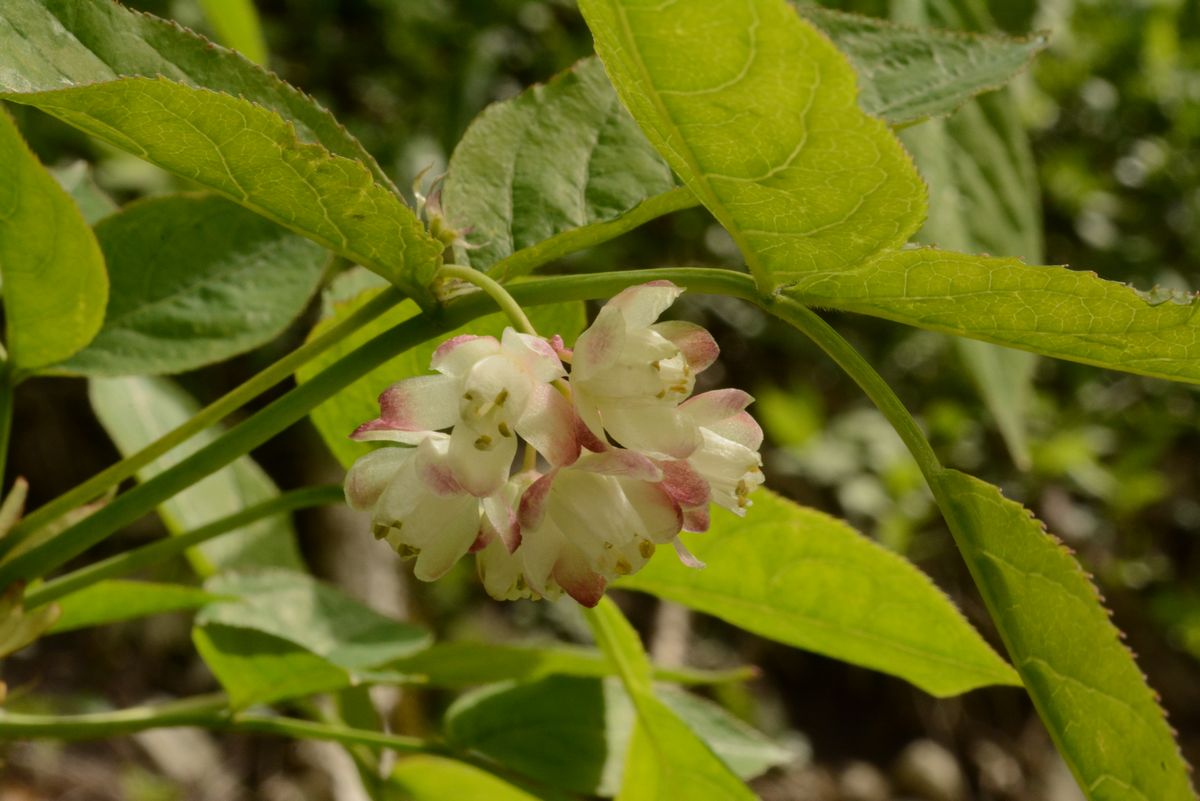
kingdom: Plantae
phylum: Tracheophyta
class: Magnoliopsida
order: Crossosomatales
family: Staphyleaceae
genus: Staphylea
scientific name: Staphylea pinnata
